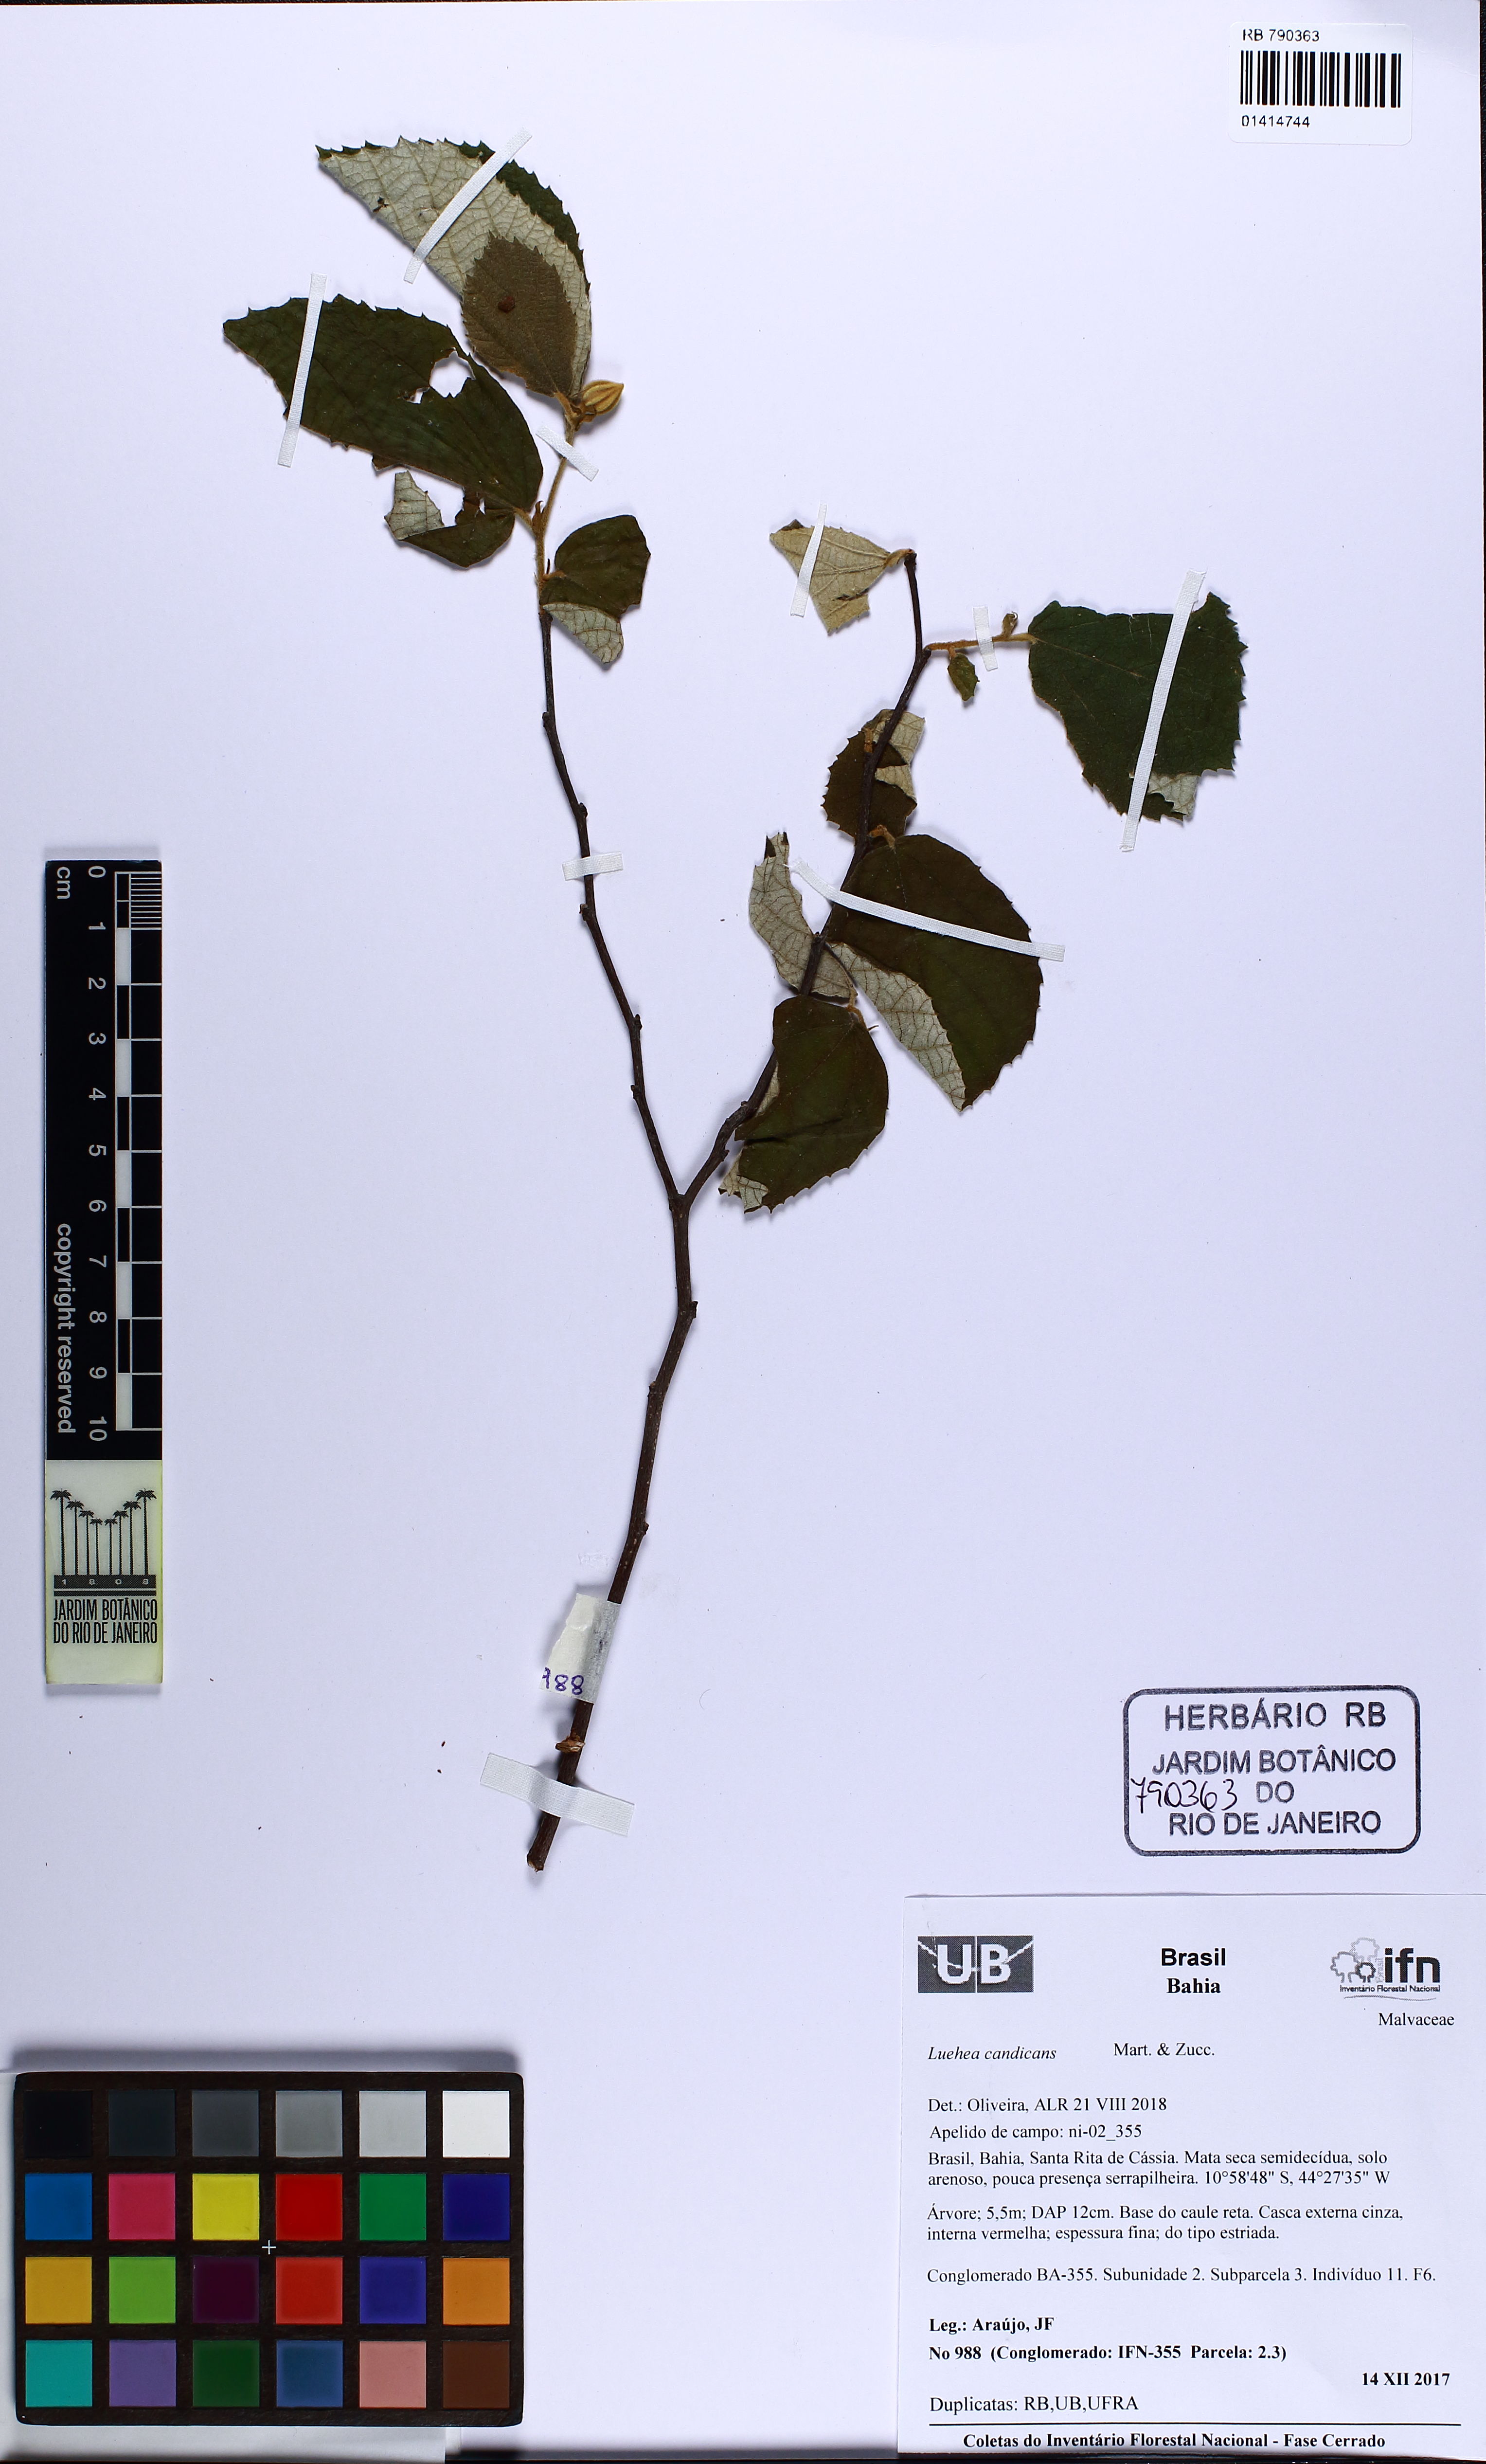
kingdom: Plantae
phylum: Tracheophyta
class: Magnoliopsida
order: Malvales
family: Malvaceae
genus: Luehea
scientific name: Luehea candicans
